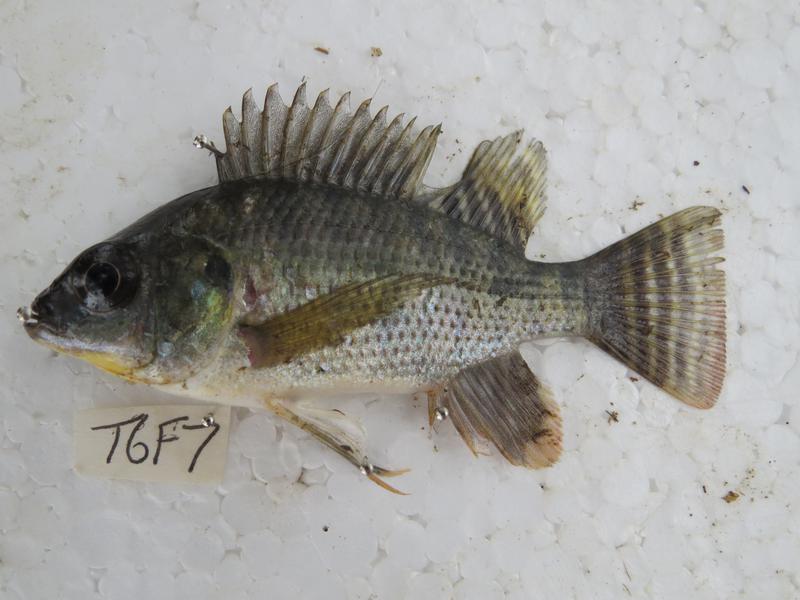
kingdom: Animalia
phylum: Chordata
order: Perciformes
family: Cichlidae
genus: Oreochromis
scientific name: Oreochromis niloticus
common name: Nile tilapia
